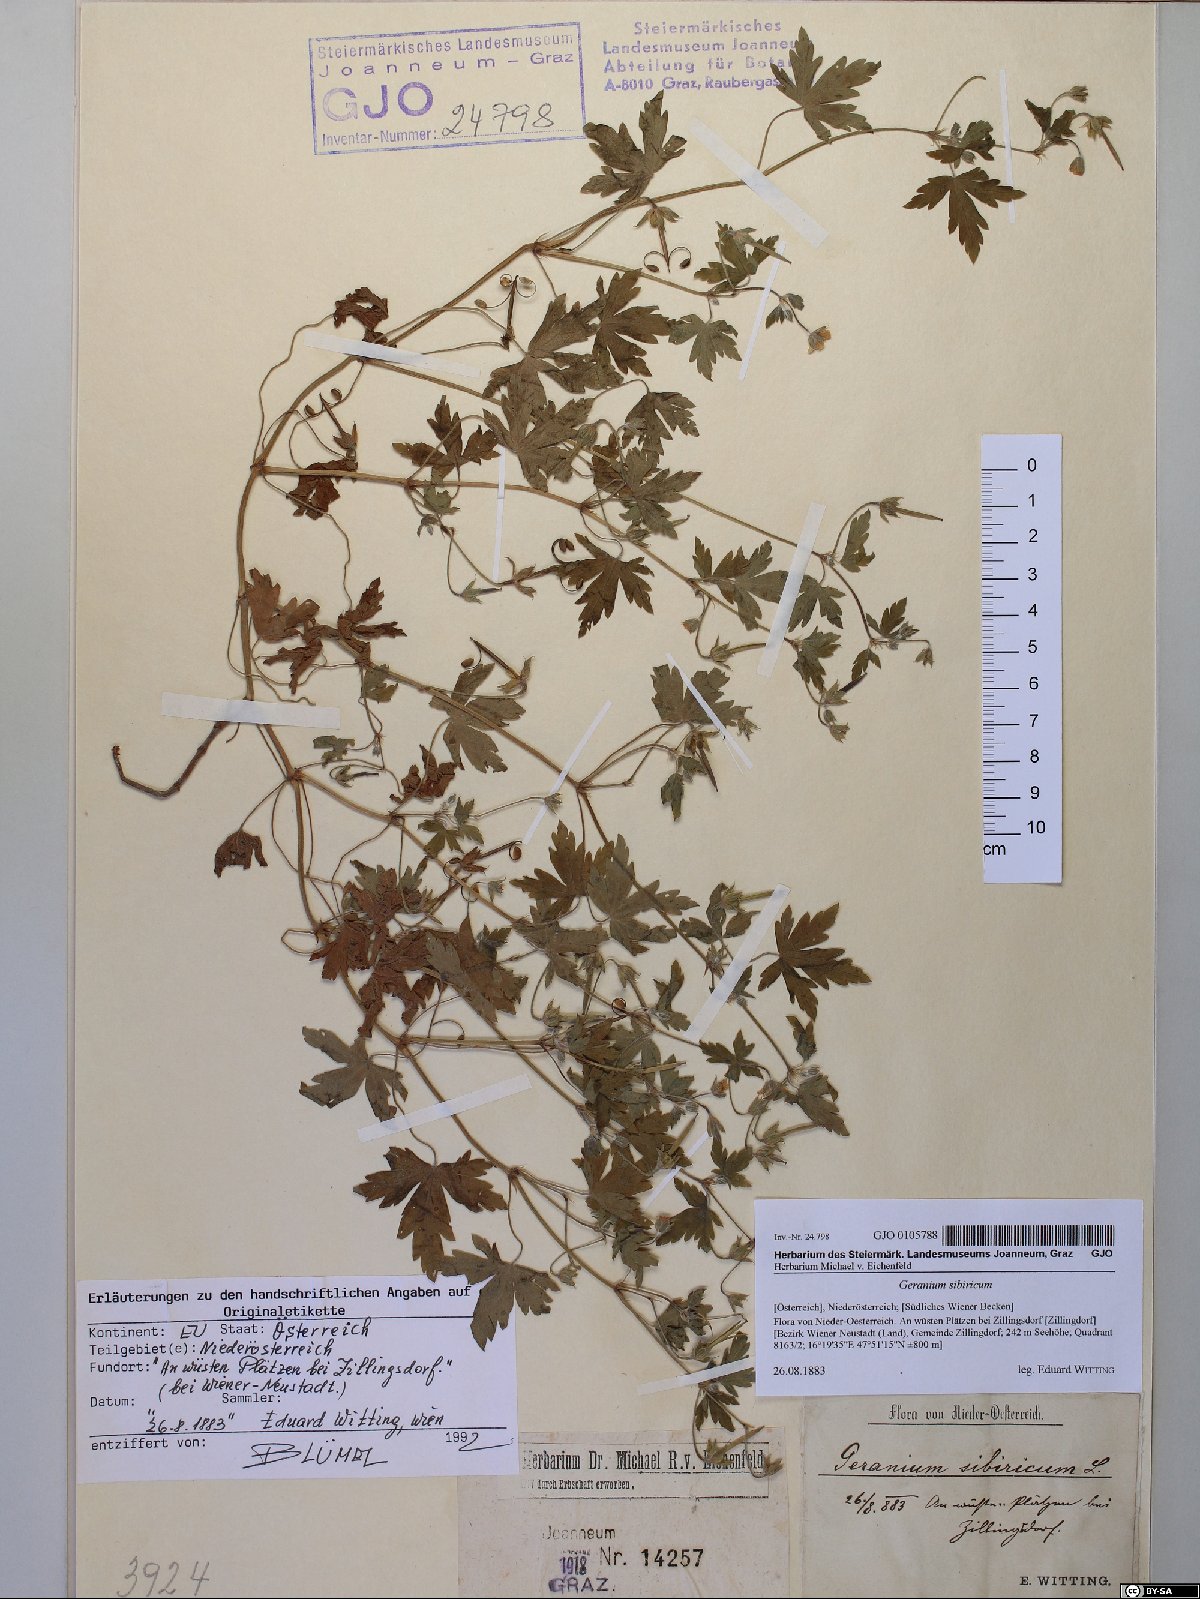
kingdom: Plantae
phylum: Tracheophyta
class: Magnoliopsida
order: Geraniales
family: Geraniaceae
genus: Geranium
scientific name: Geranium sibiricum
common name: Siberian crane's-bill
